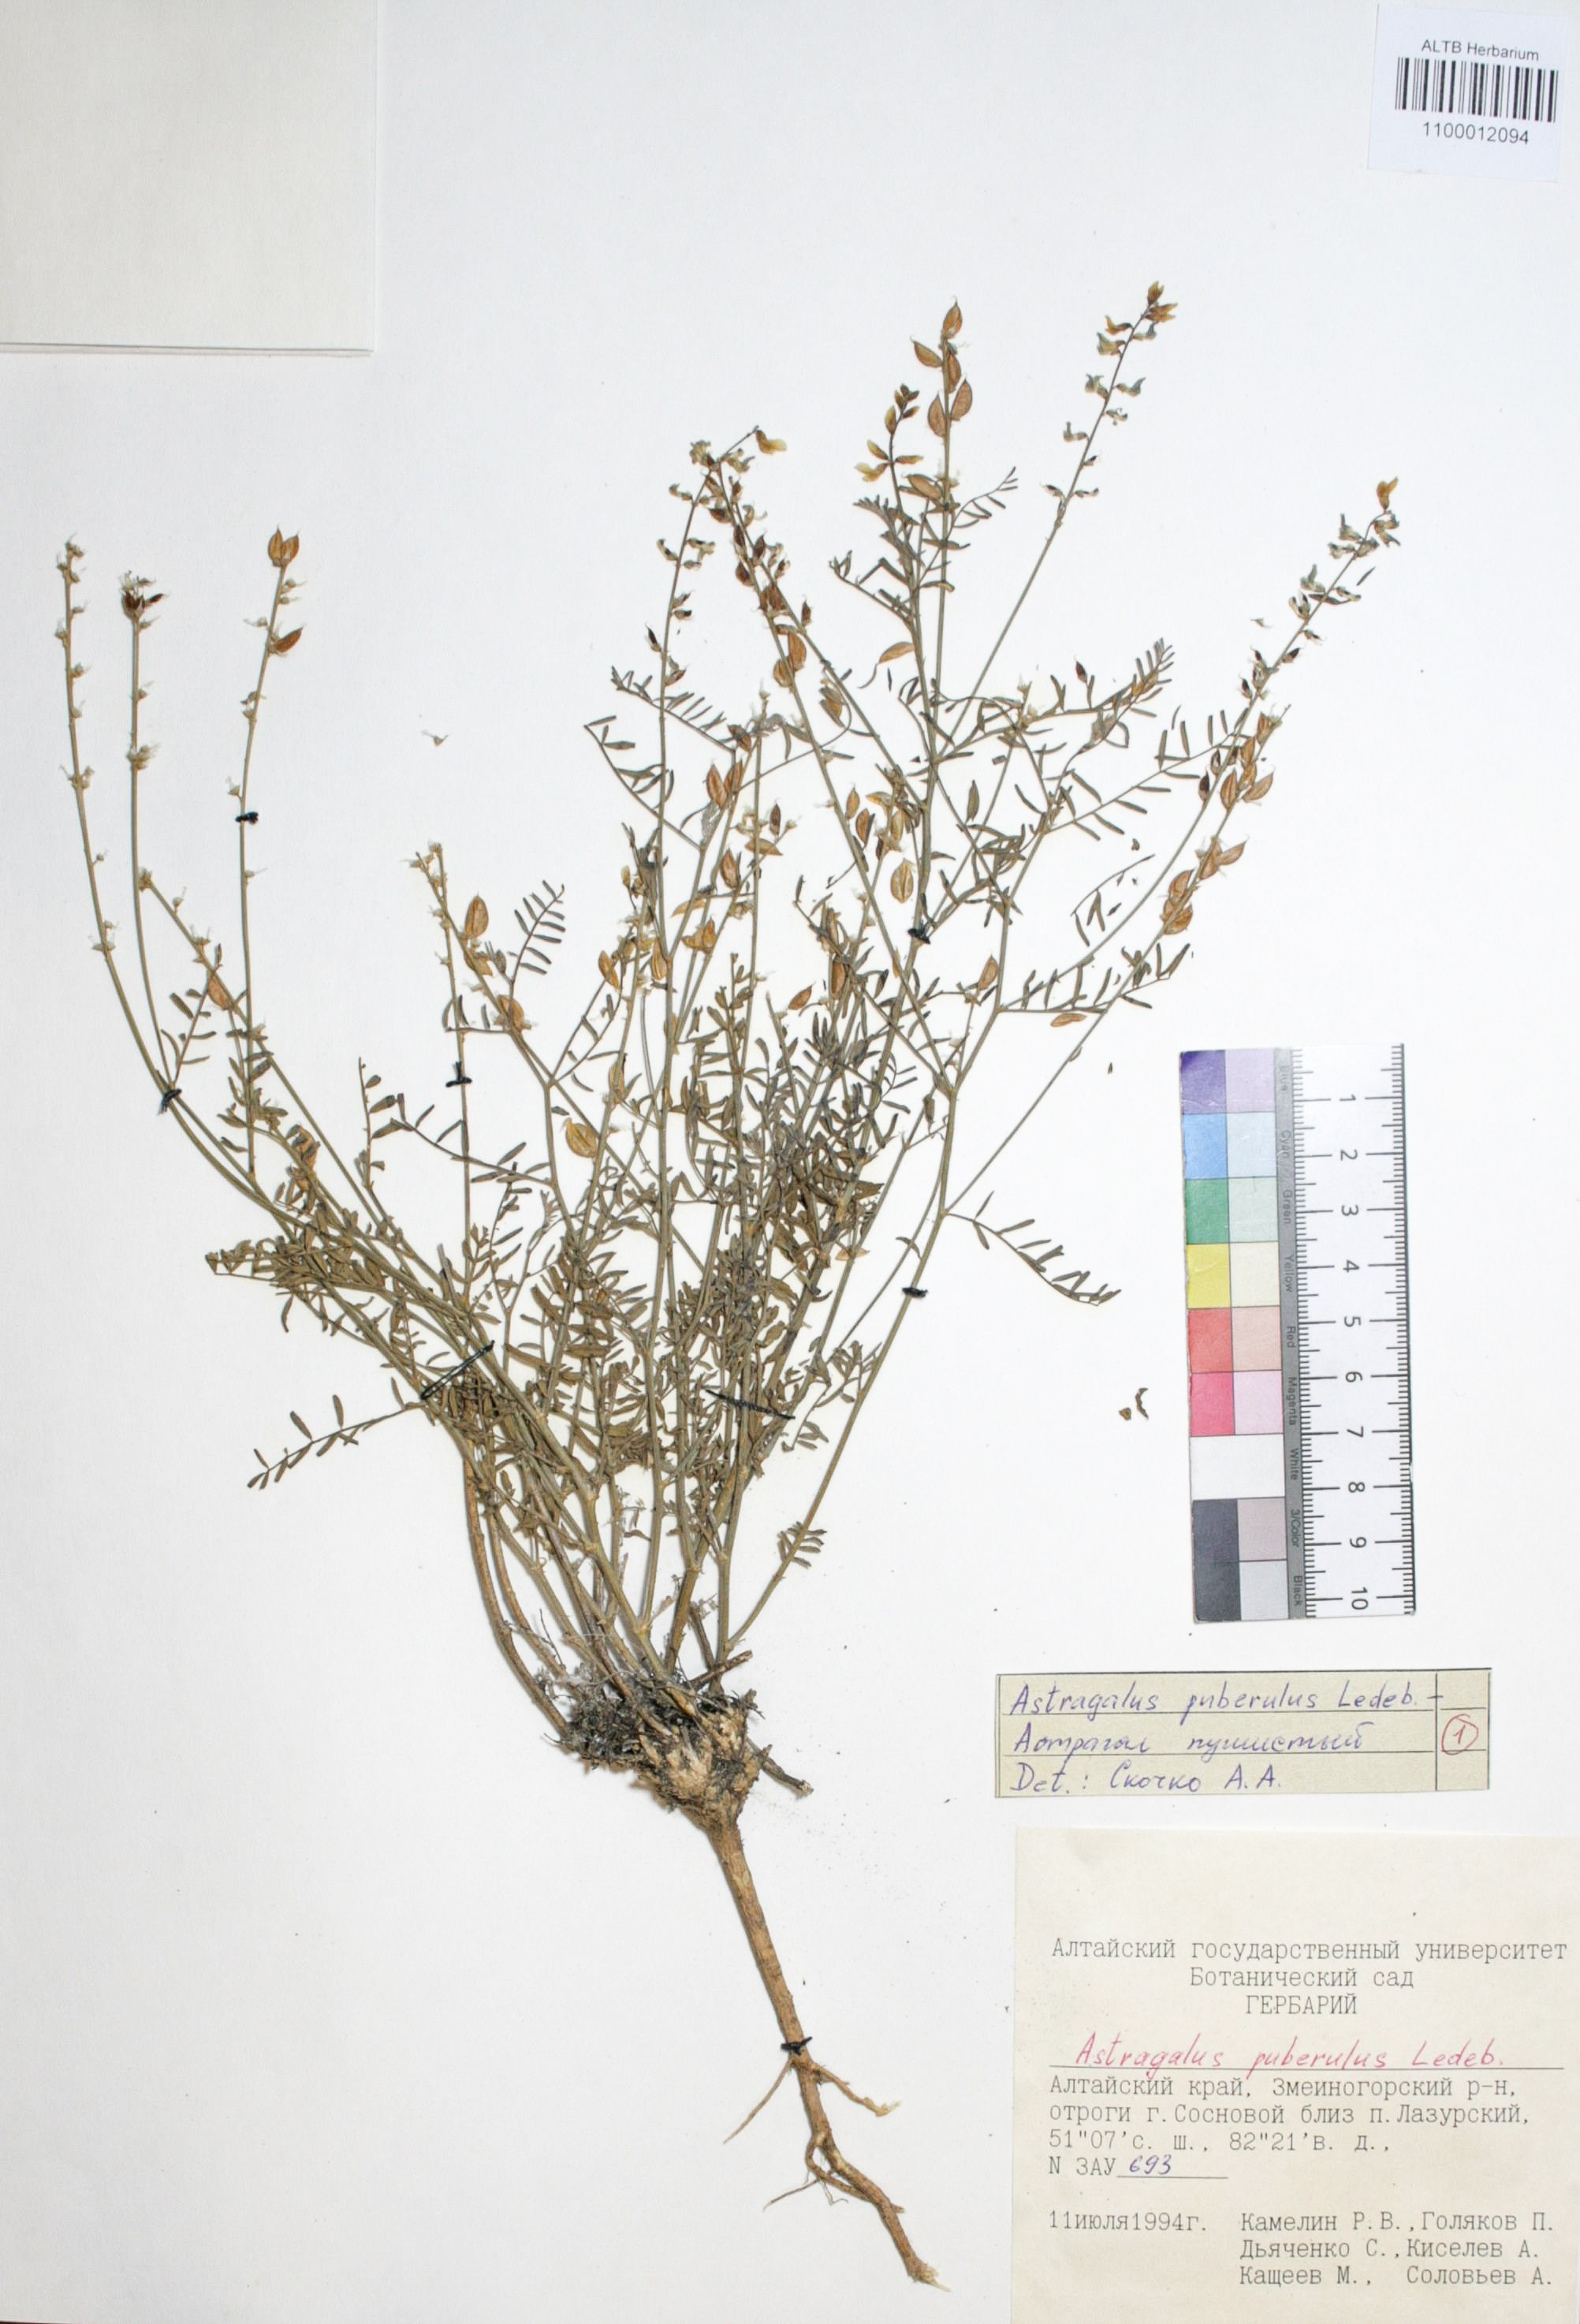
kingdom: Plantae
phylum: Tracheophyta
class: Magnoliopsida
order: Fabales
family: Fabaceae
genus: Astragalus
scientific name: Astragalus puberulus
